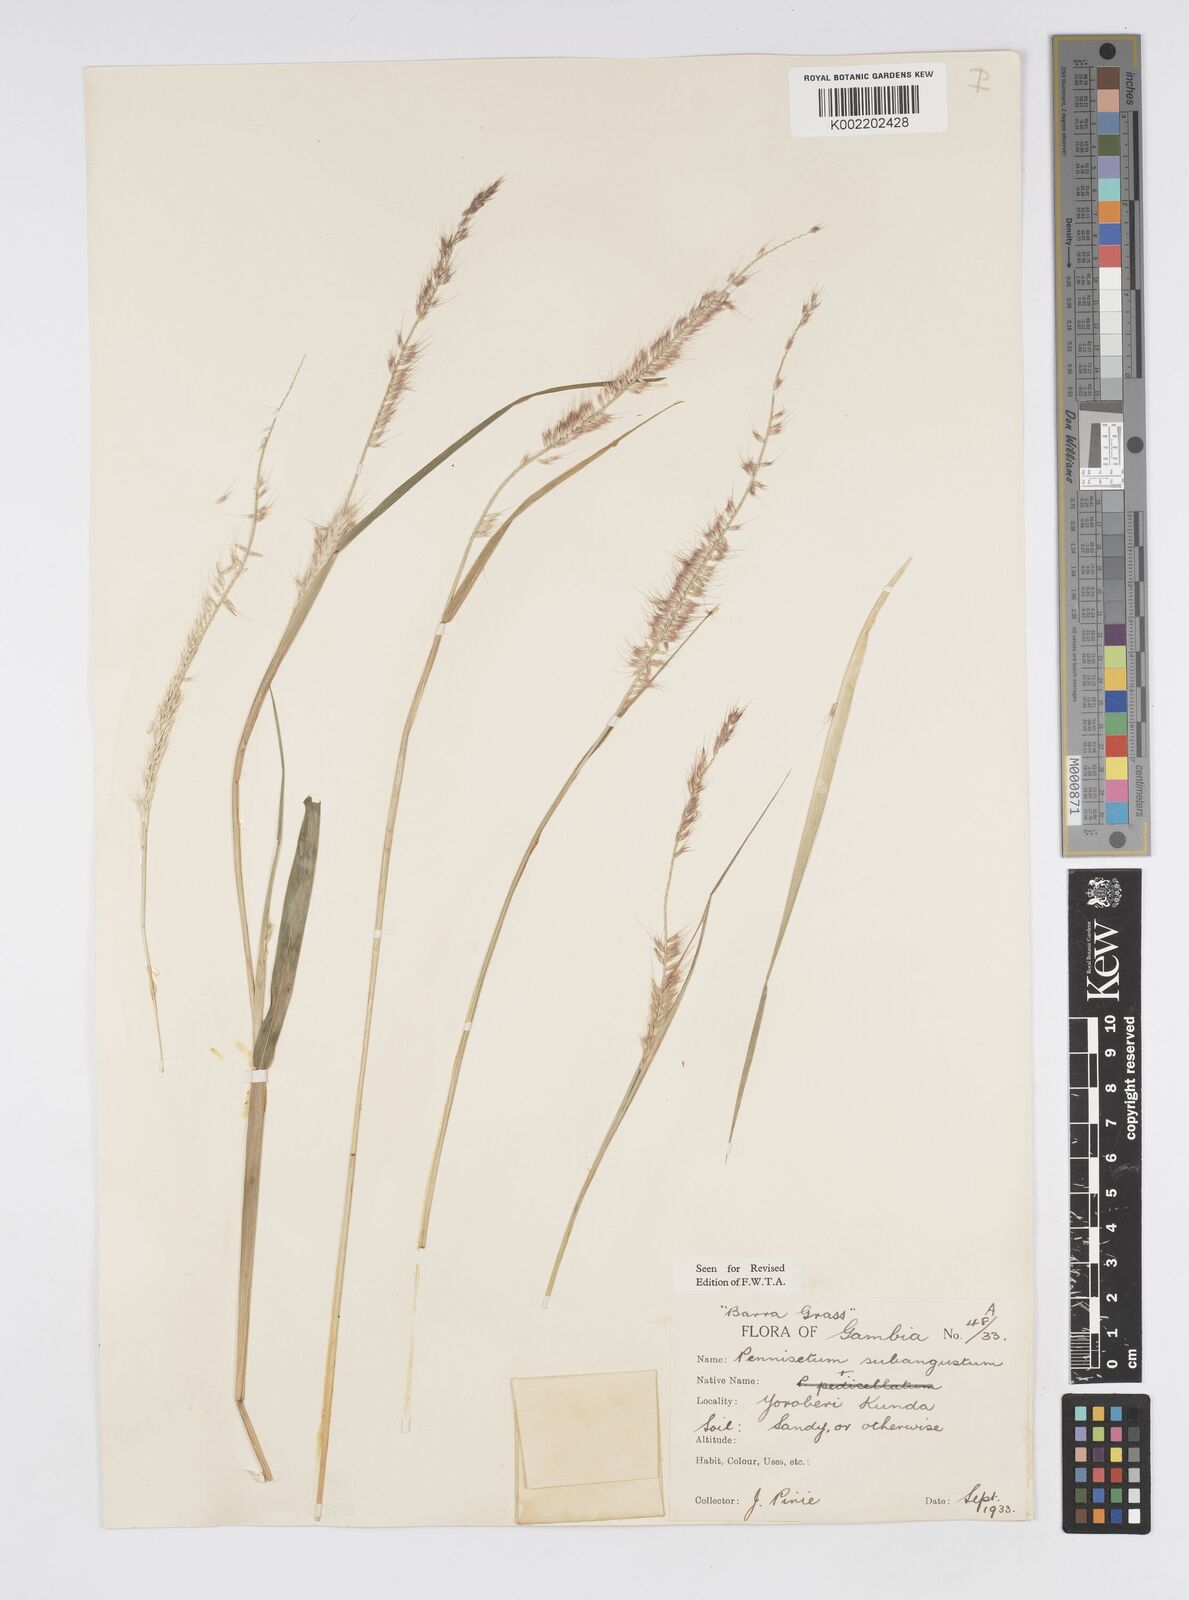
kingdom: Plantae
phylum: Tracheophyta
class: Liliopsida
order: Poales
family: Poaceae
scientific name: Poaceae
